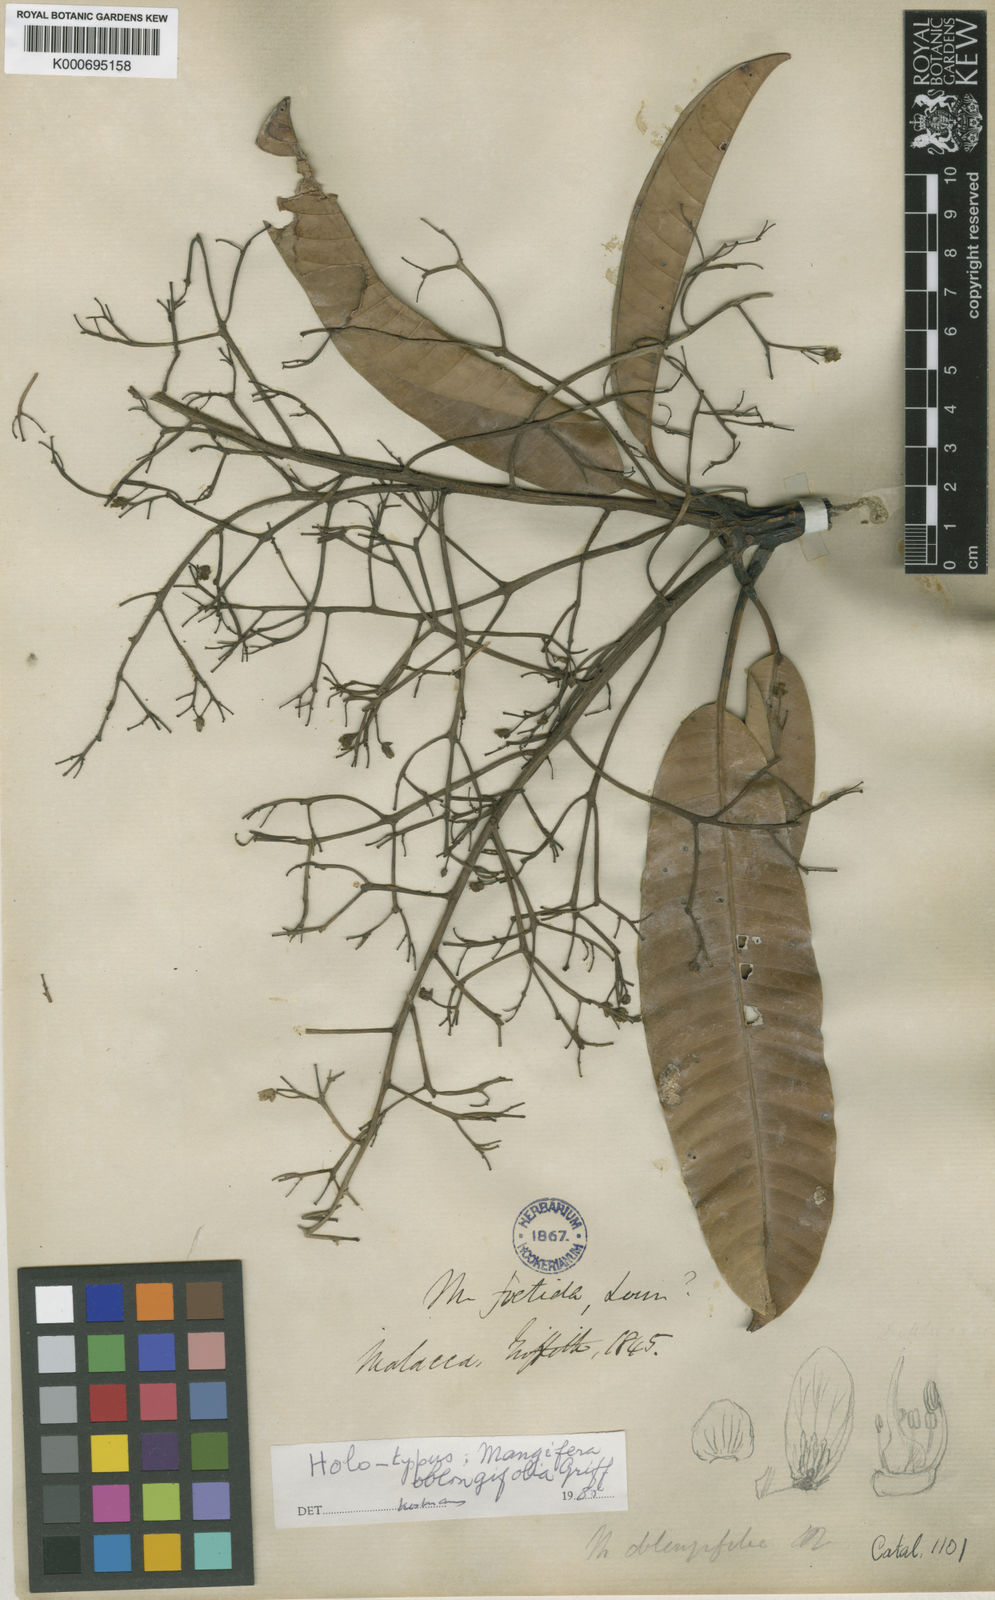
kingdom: Plantae
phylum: Tracheophyta
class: Magnoliopsida
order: Sapindales
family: Anacardiaceae
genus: Mangifera
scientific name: Mangifera odorata
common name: Saipan mango
